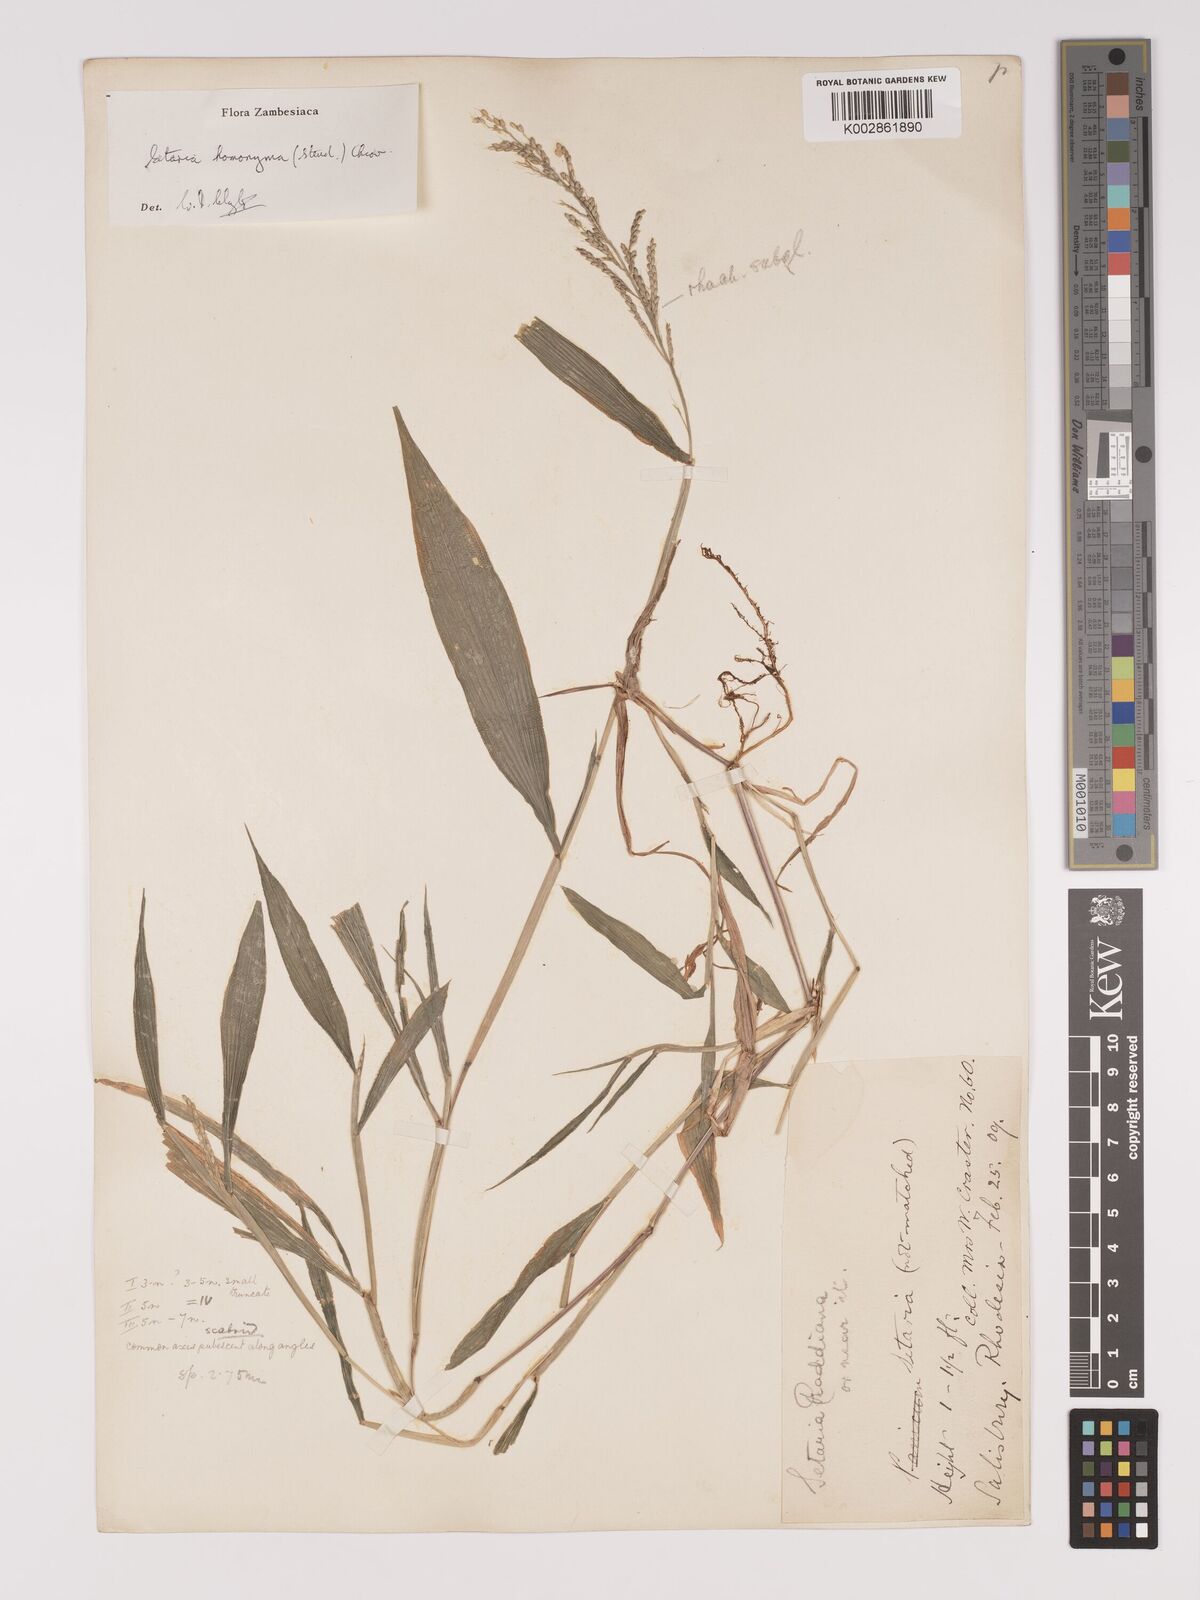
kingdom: Plantae
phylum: Tracheophyta
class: Liliopsida
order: Poales
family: Poaceae
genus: Setaria
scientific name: Setaria homonyma
